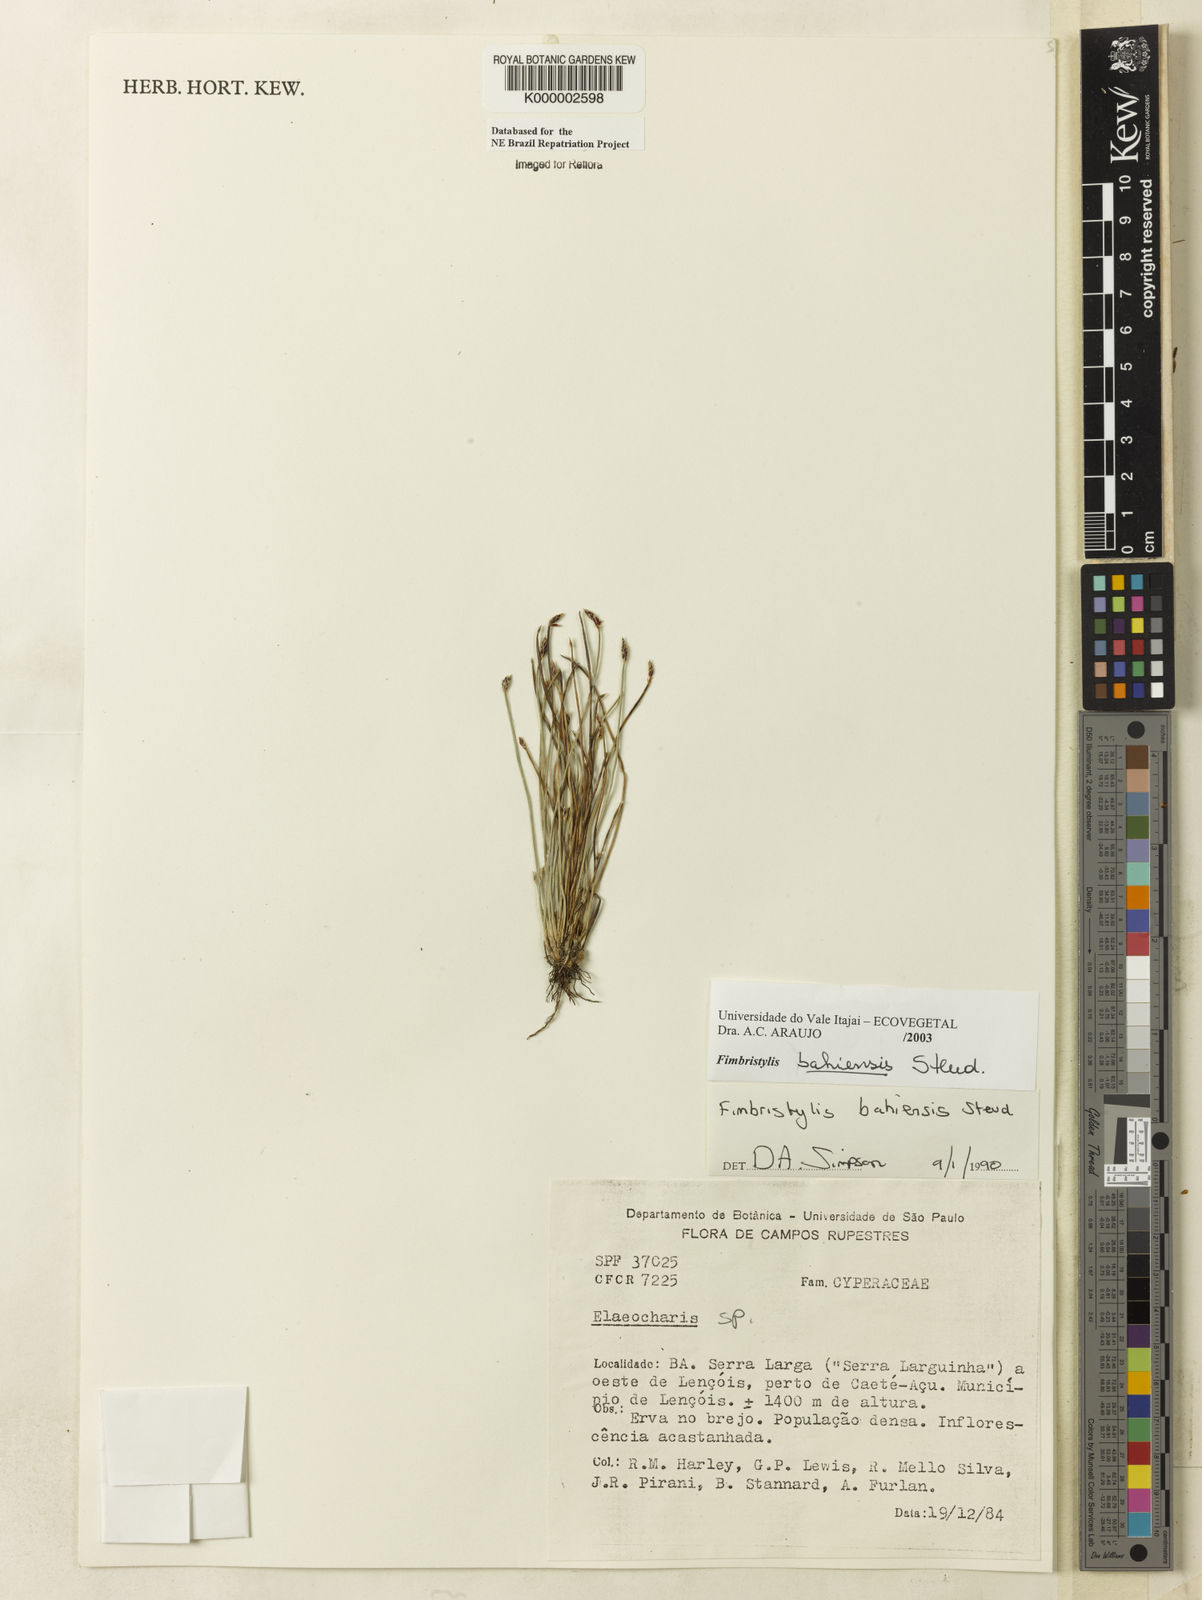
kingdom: Plantae
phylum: Tracheophyta
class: Liliopsida
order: Poales
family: Cyperaceae
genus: Fimbristylis
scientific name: Fimbristylis bahiensis
